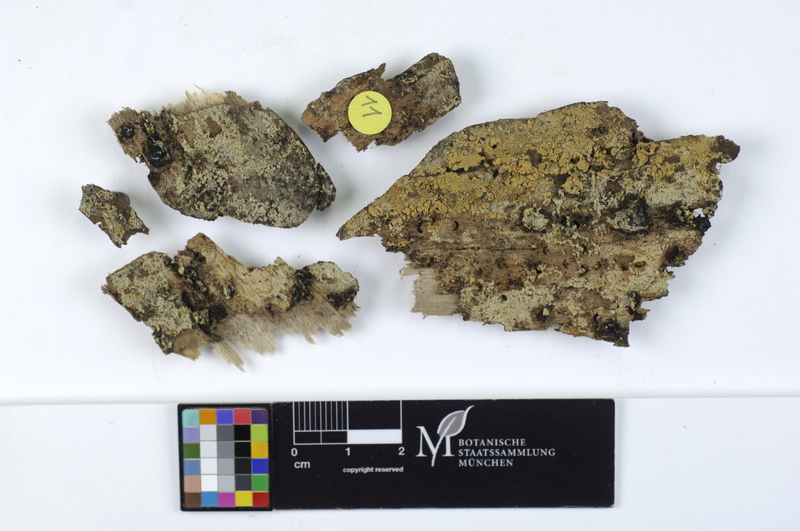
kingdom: Plantae
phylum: Tracheophyta
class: Magnoliopsida
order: Malpighiales
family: Salicaceae
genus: Populus
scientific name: Populus
